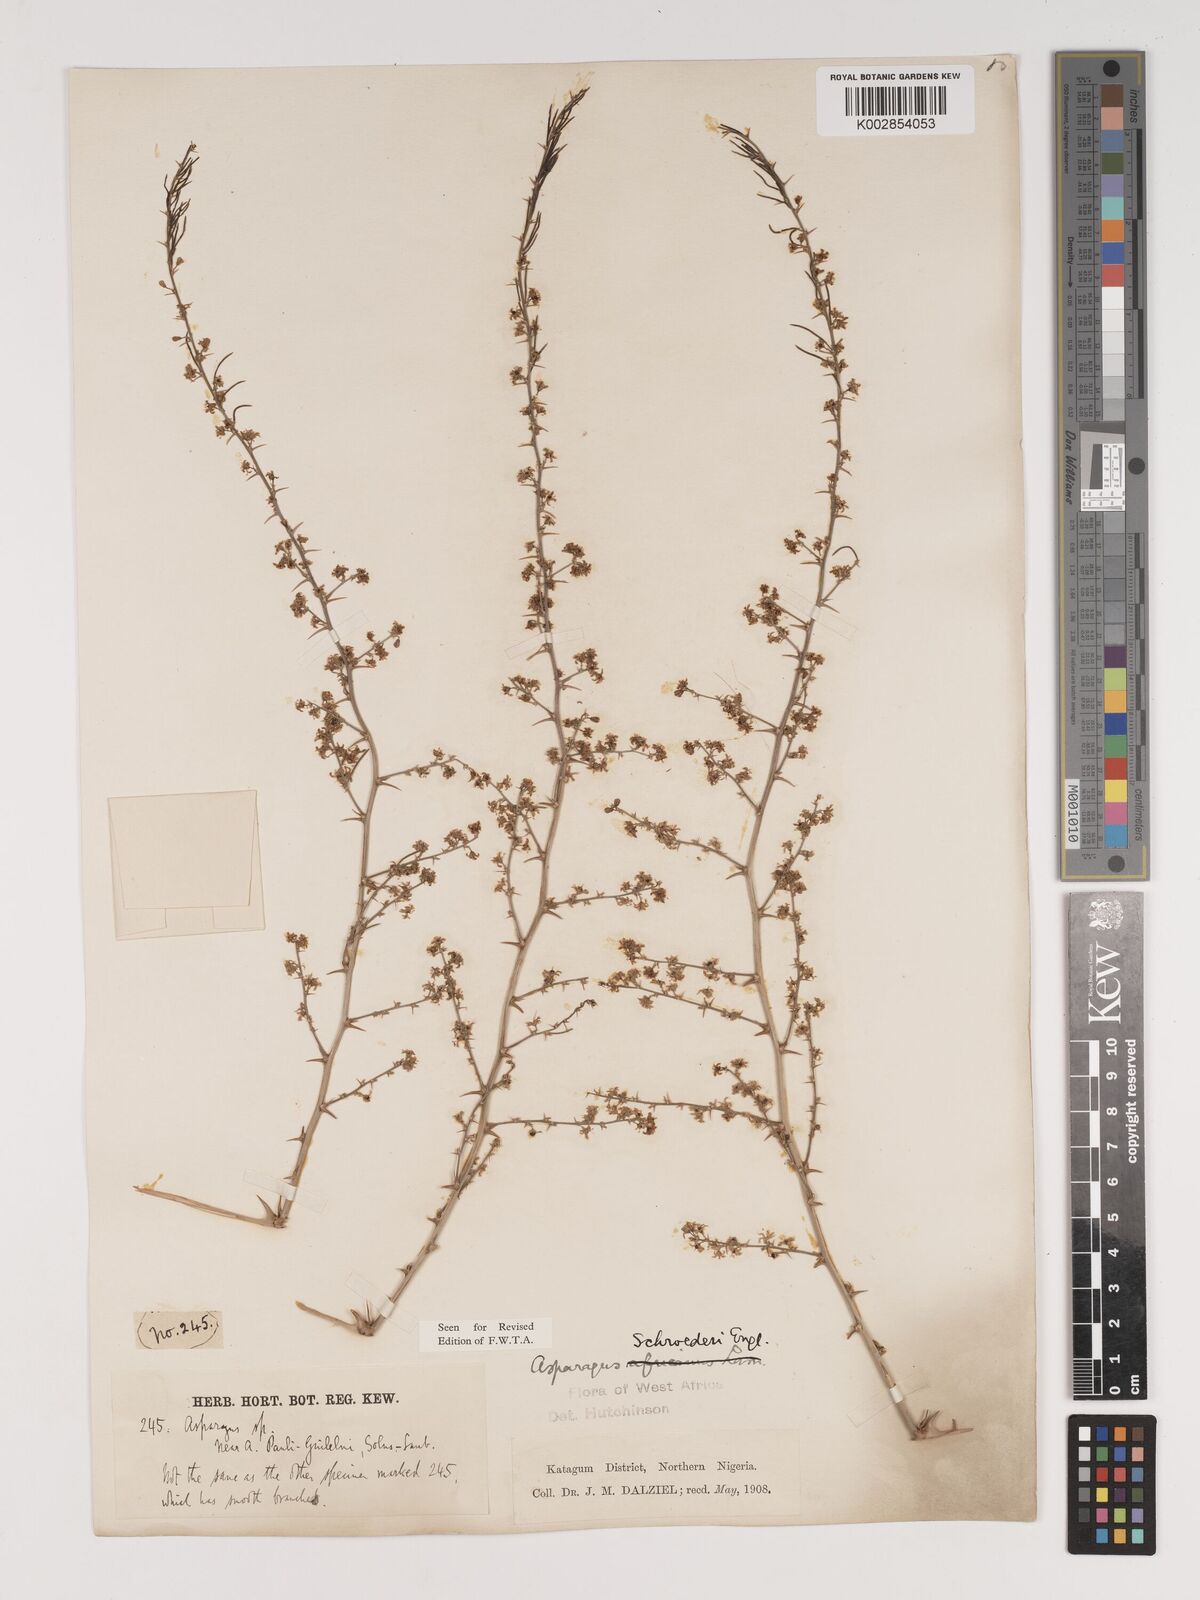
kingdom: Plantae
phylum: Tracheophyta
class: Liliopsida
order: Asparagales
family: Asparagaceae
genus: Asparagus
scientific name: Asparagus schroederi
